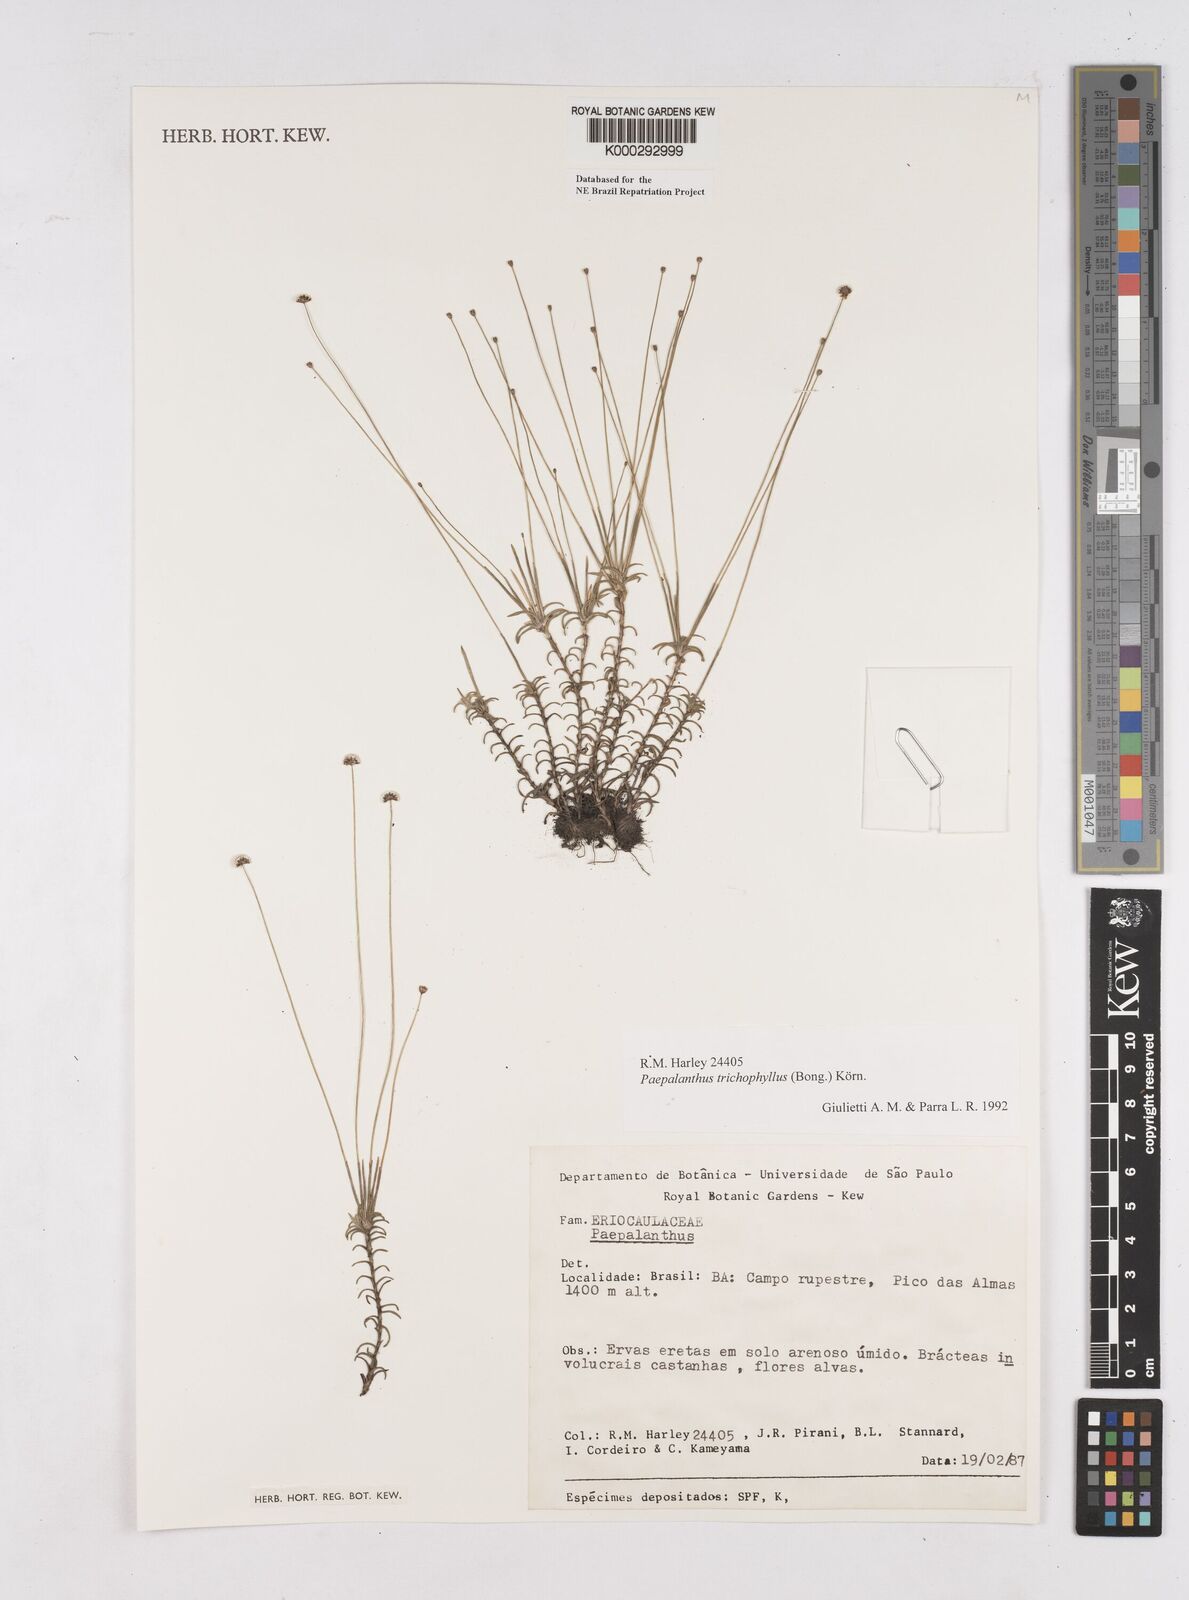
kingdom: Plantae
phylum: Tracheophyta
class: Liliopsida
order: Poales
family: Eriocaulaceae
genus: Paepalanthus
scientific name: Paepalanthus
